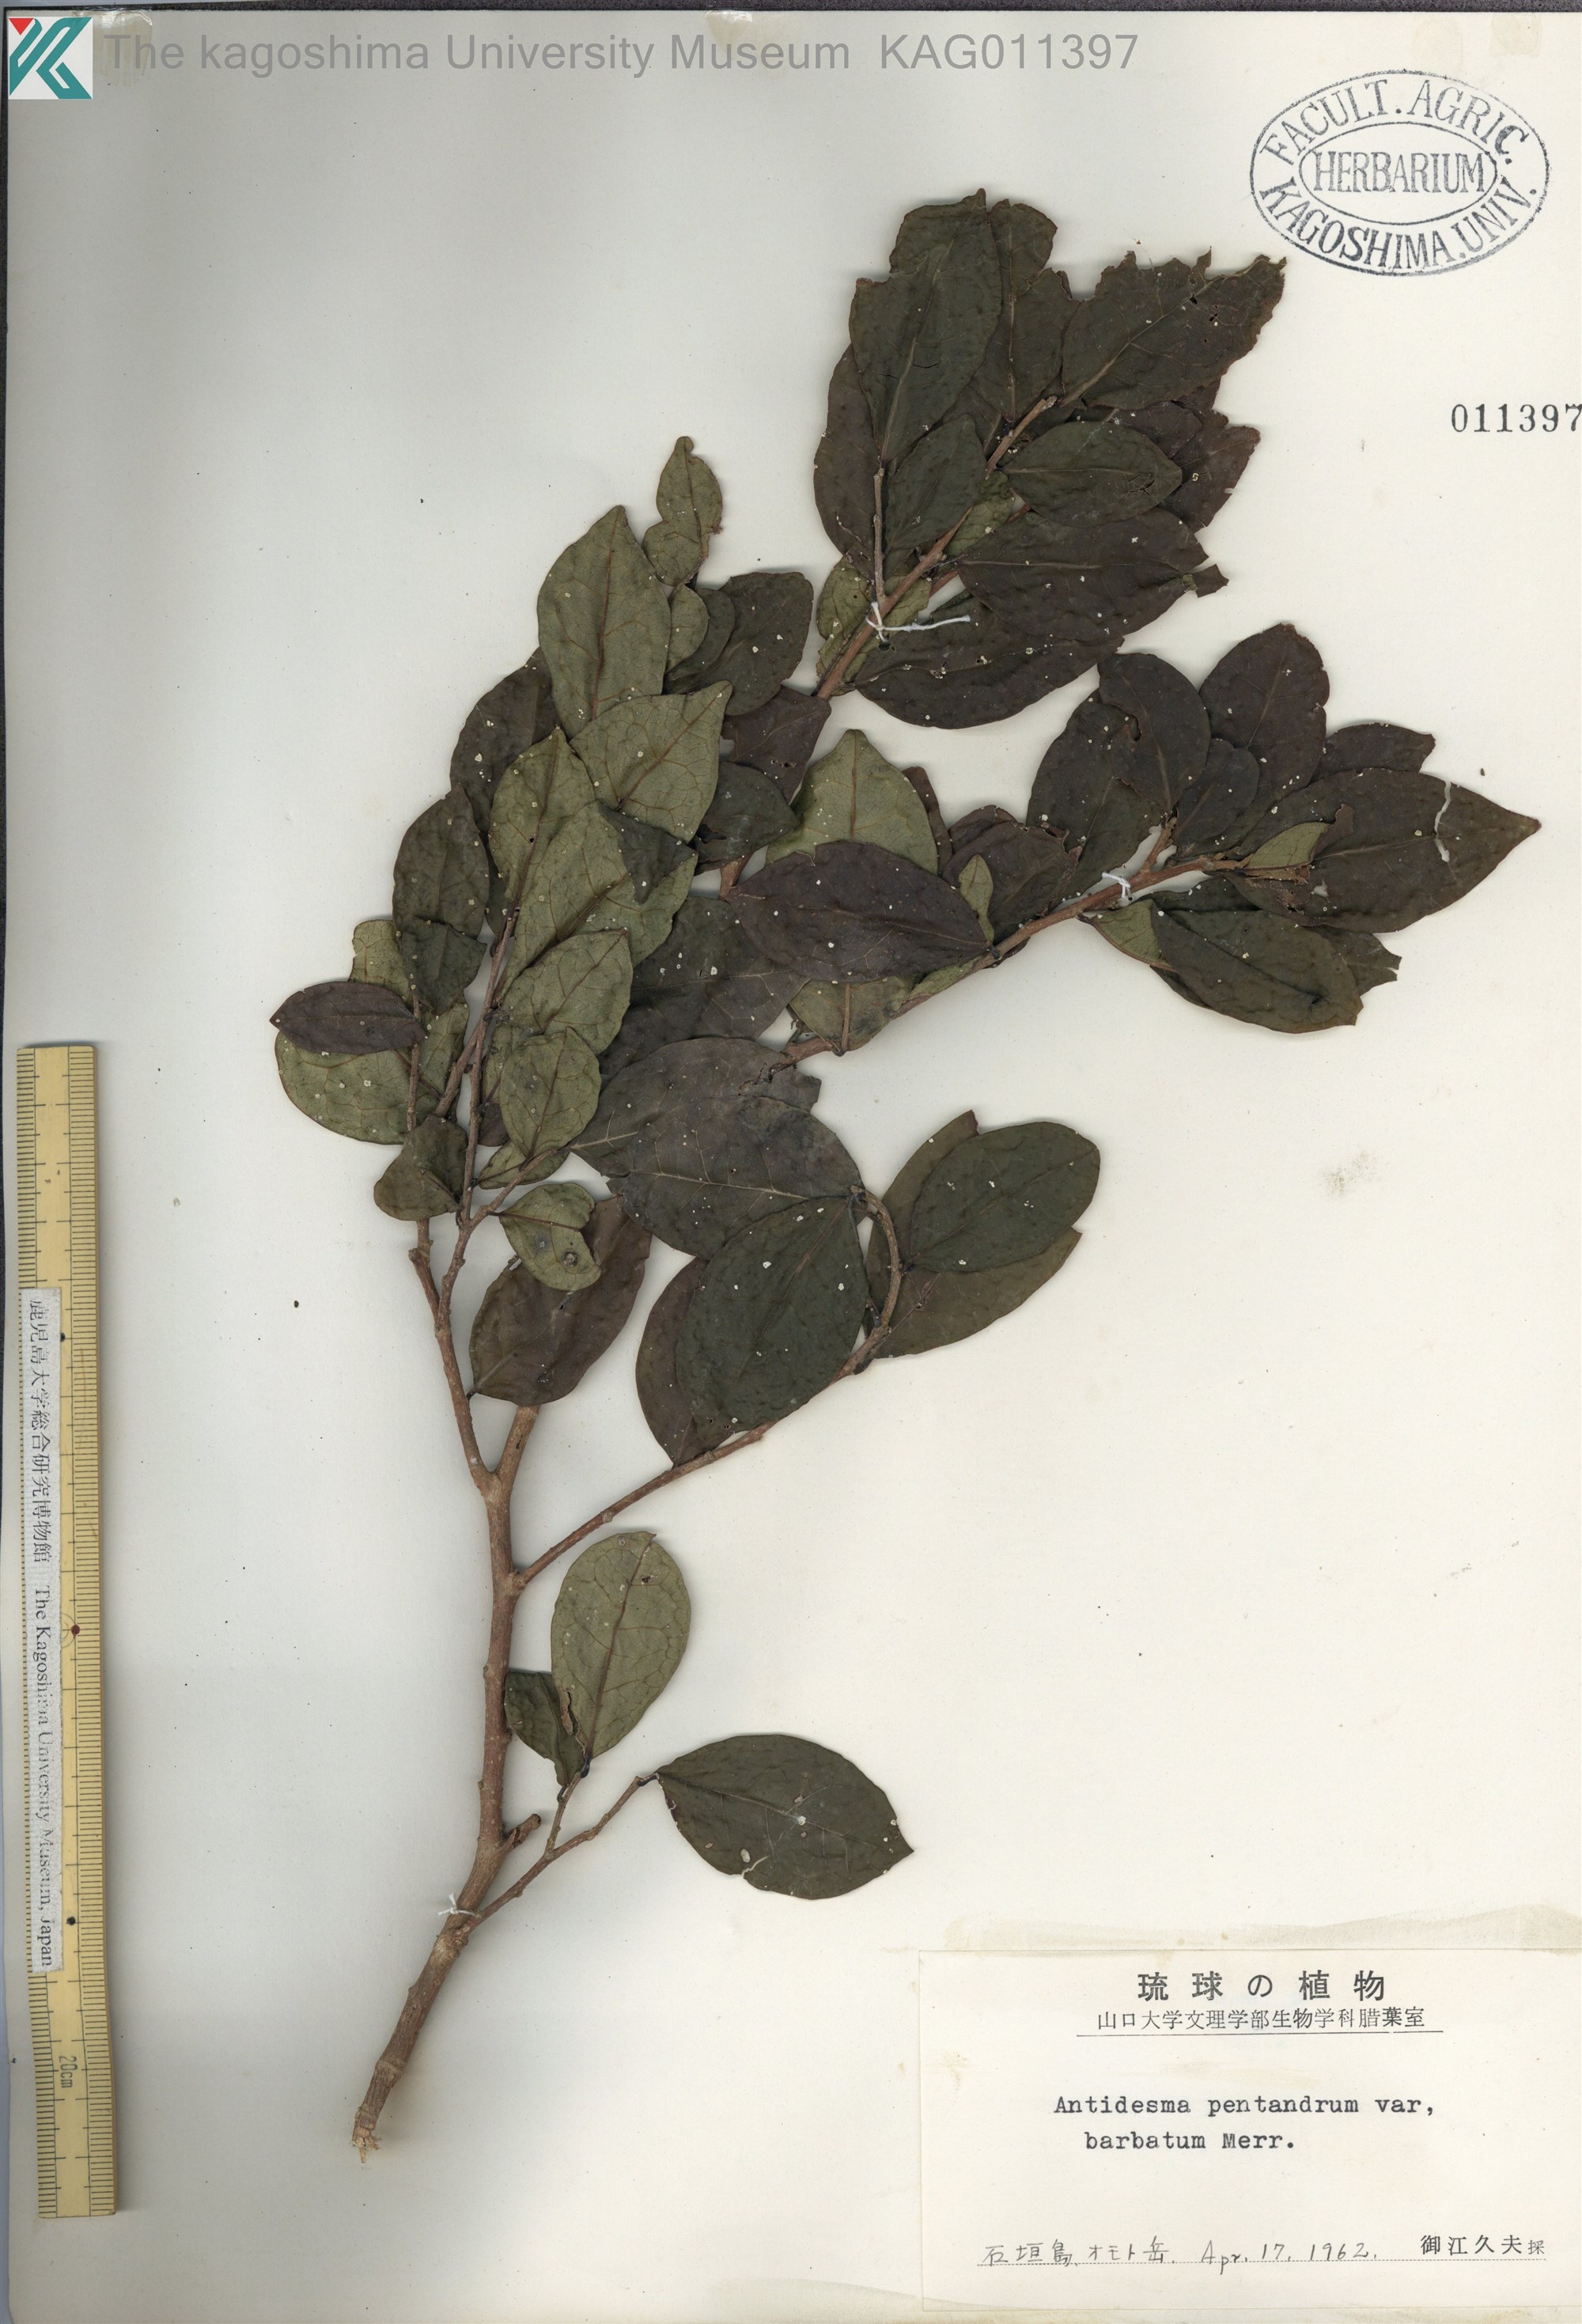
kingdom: Plantae
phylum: Tracheophyta
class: Magnoliopsida
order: Malpighiales
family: Phyllanthaceae
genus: Antidesma
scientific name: Antidesma montanum
